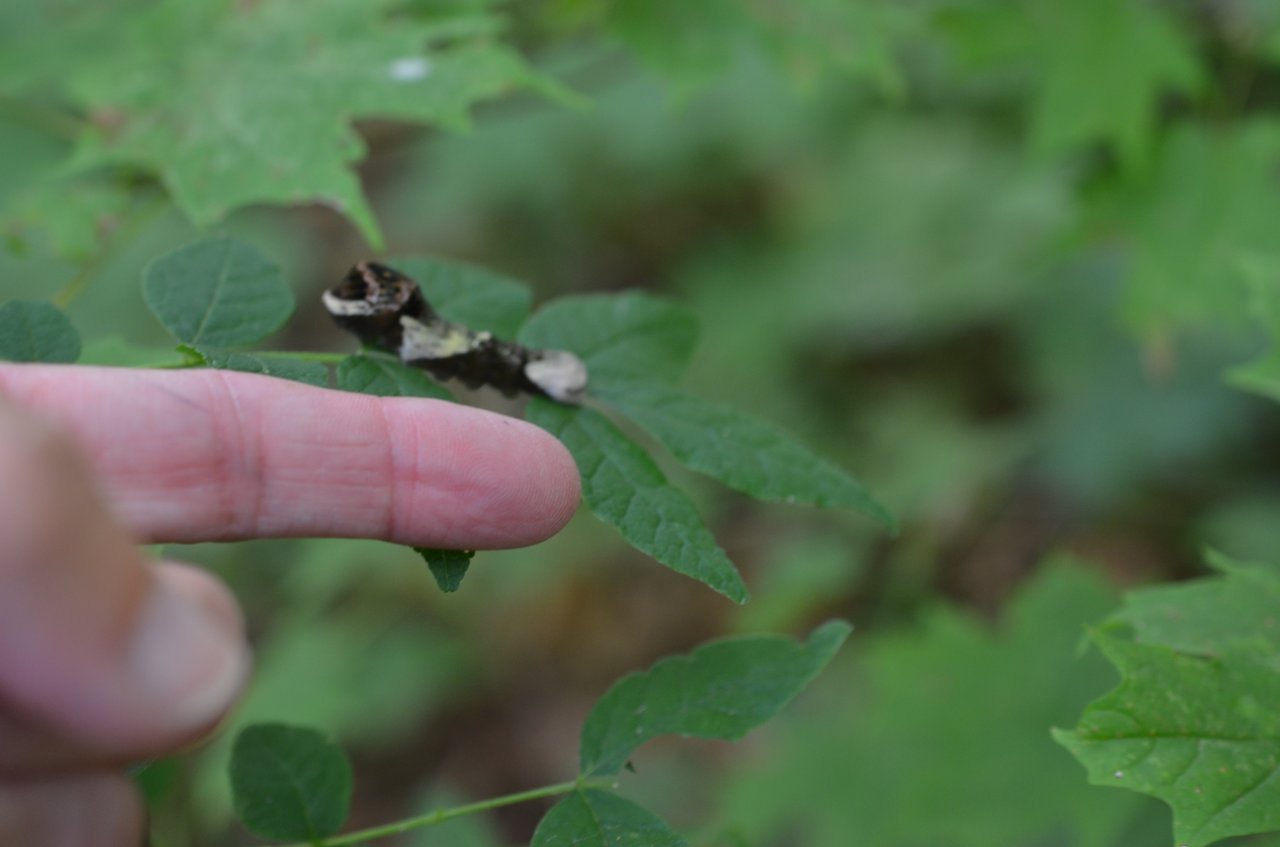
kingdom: Animalia
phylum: Arthropoda
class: Insecta
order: Lepidoptera
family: Papilionidae
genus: Papilio
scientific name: Papilio cresphontes
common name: Eastern Giant Swallowtail
